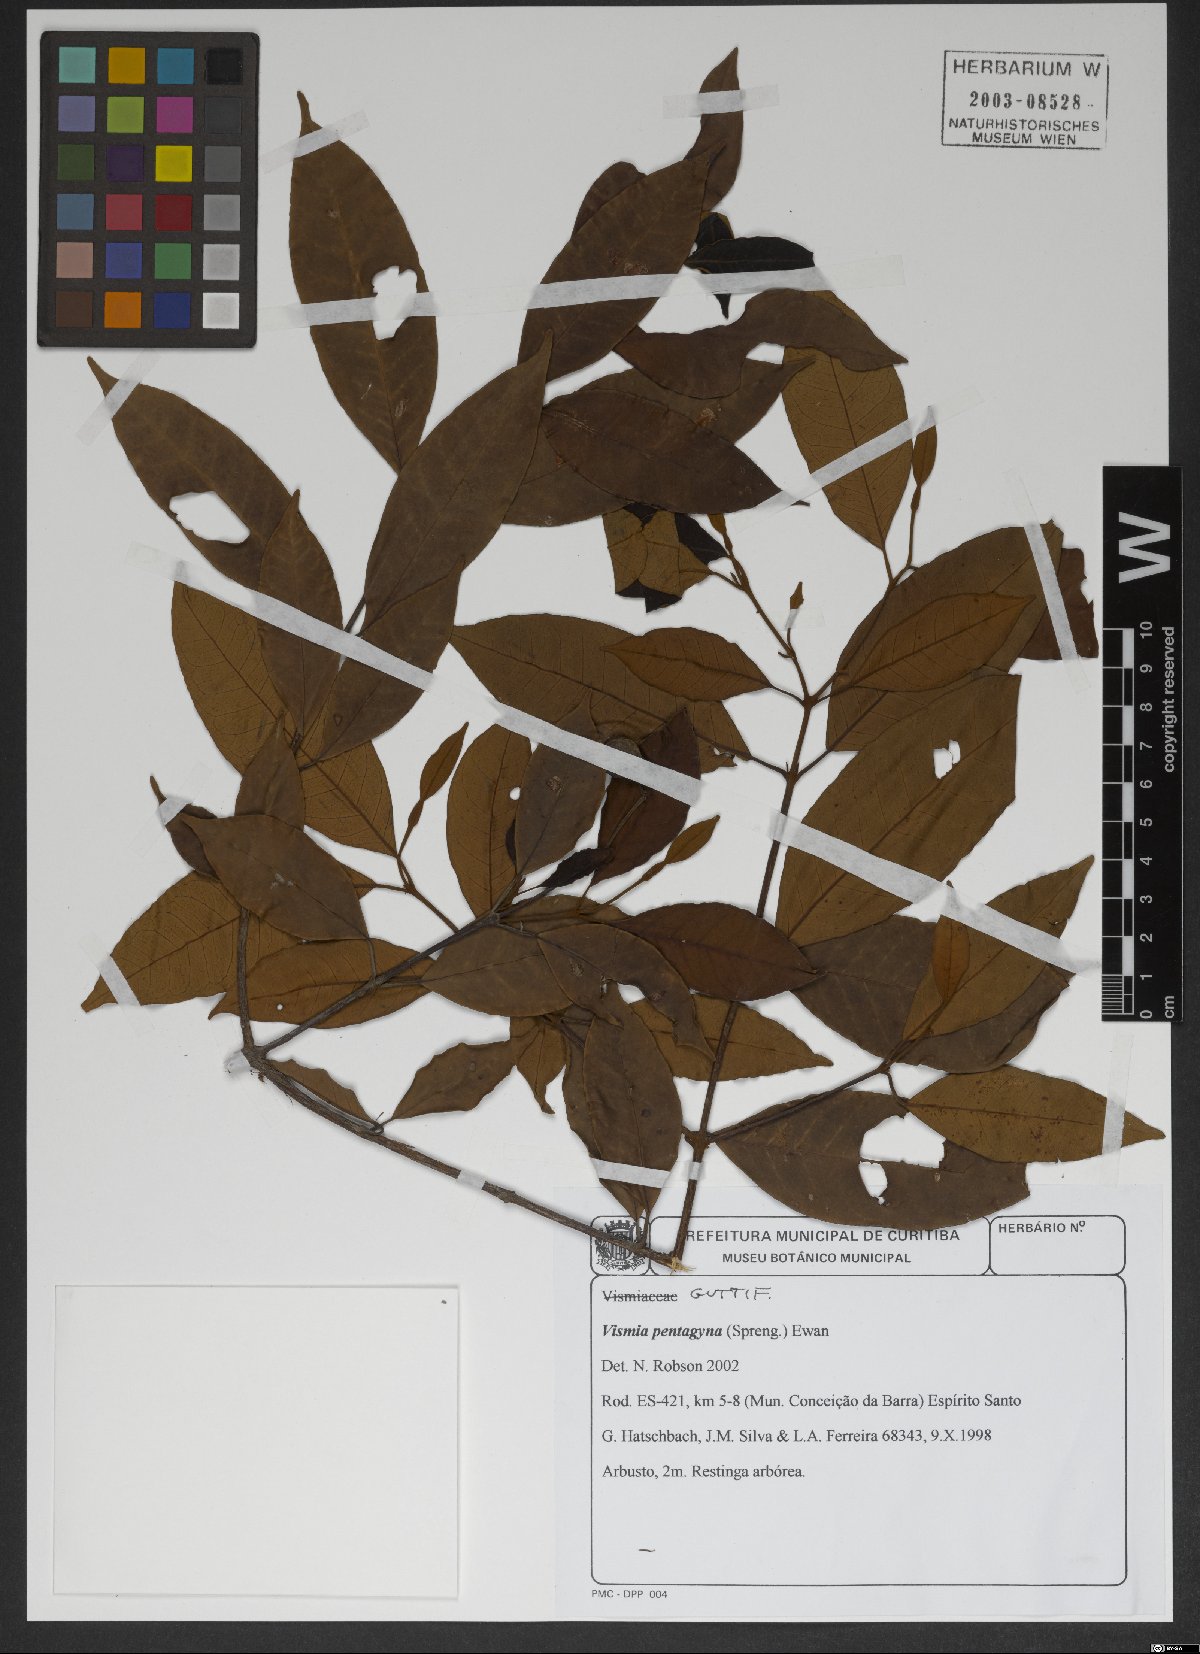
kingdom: Plantae
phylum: Tracheophyta
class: Magnoliopsida
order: Malpighiales
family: Hypericaceae
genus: Vismia
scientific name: Vismia pentagyna
